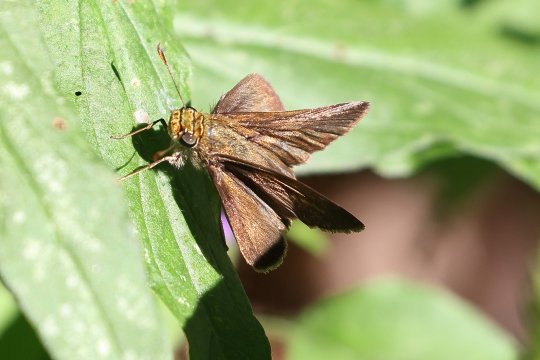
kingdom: Animalia
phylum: Arthropoda
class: Insecta
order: Lepidoptera
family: Hesperiidae
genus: Euphyes
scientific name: Euphyes vestris
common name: Dun Skipper
